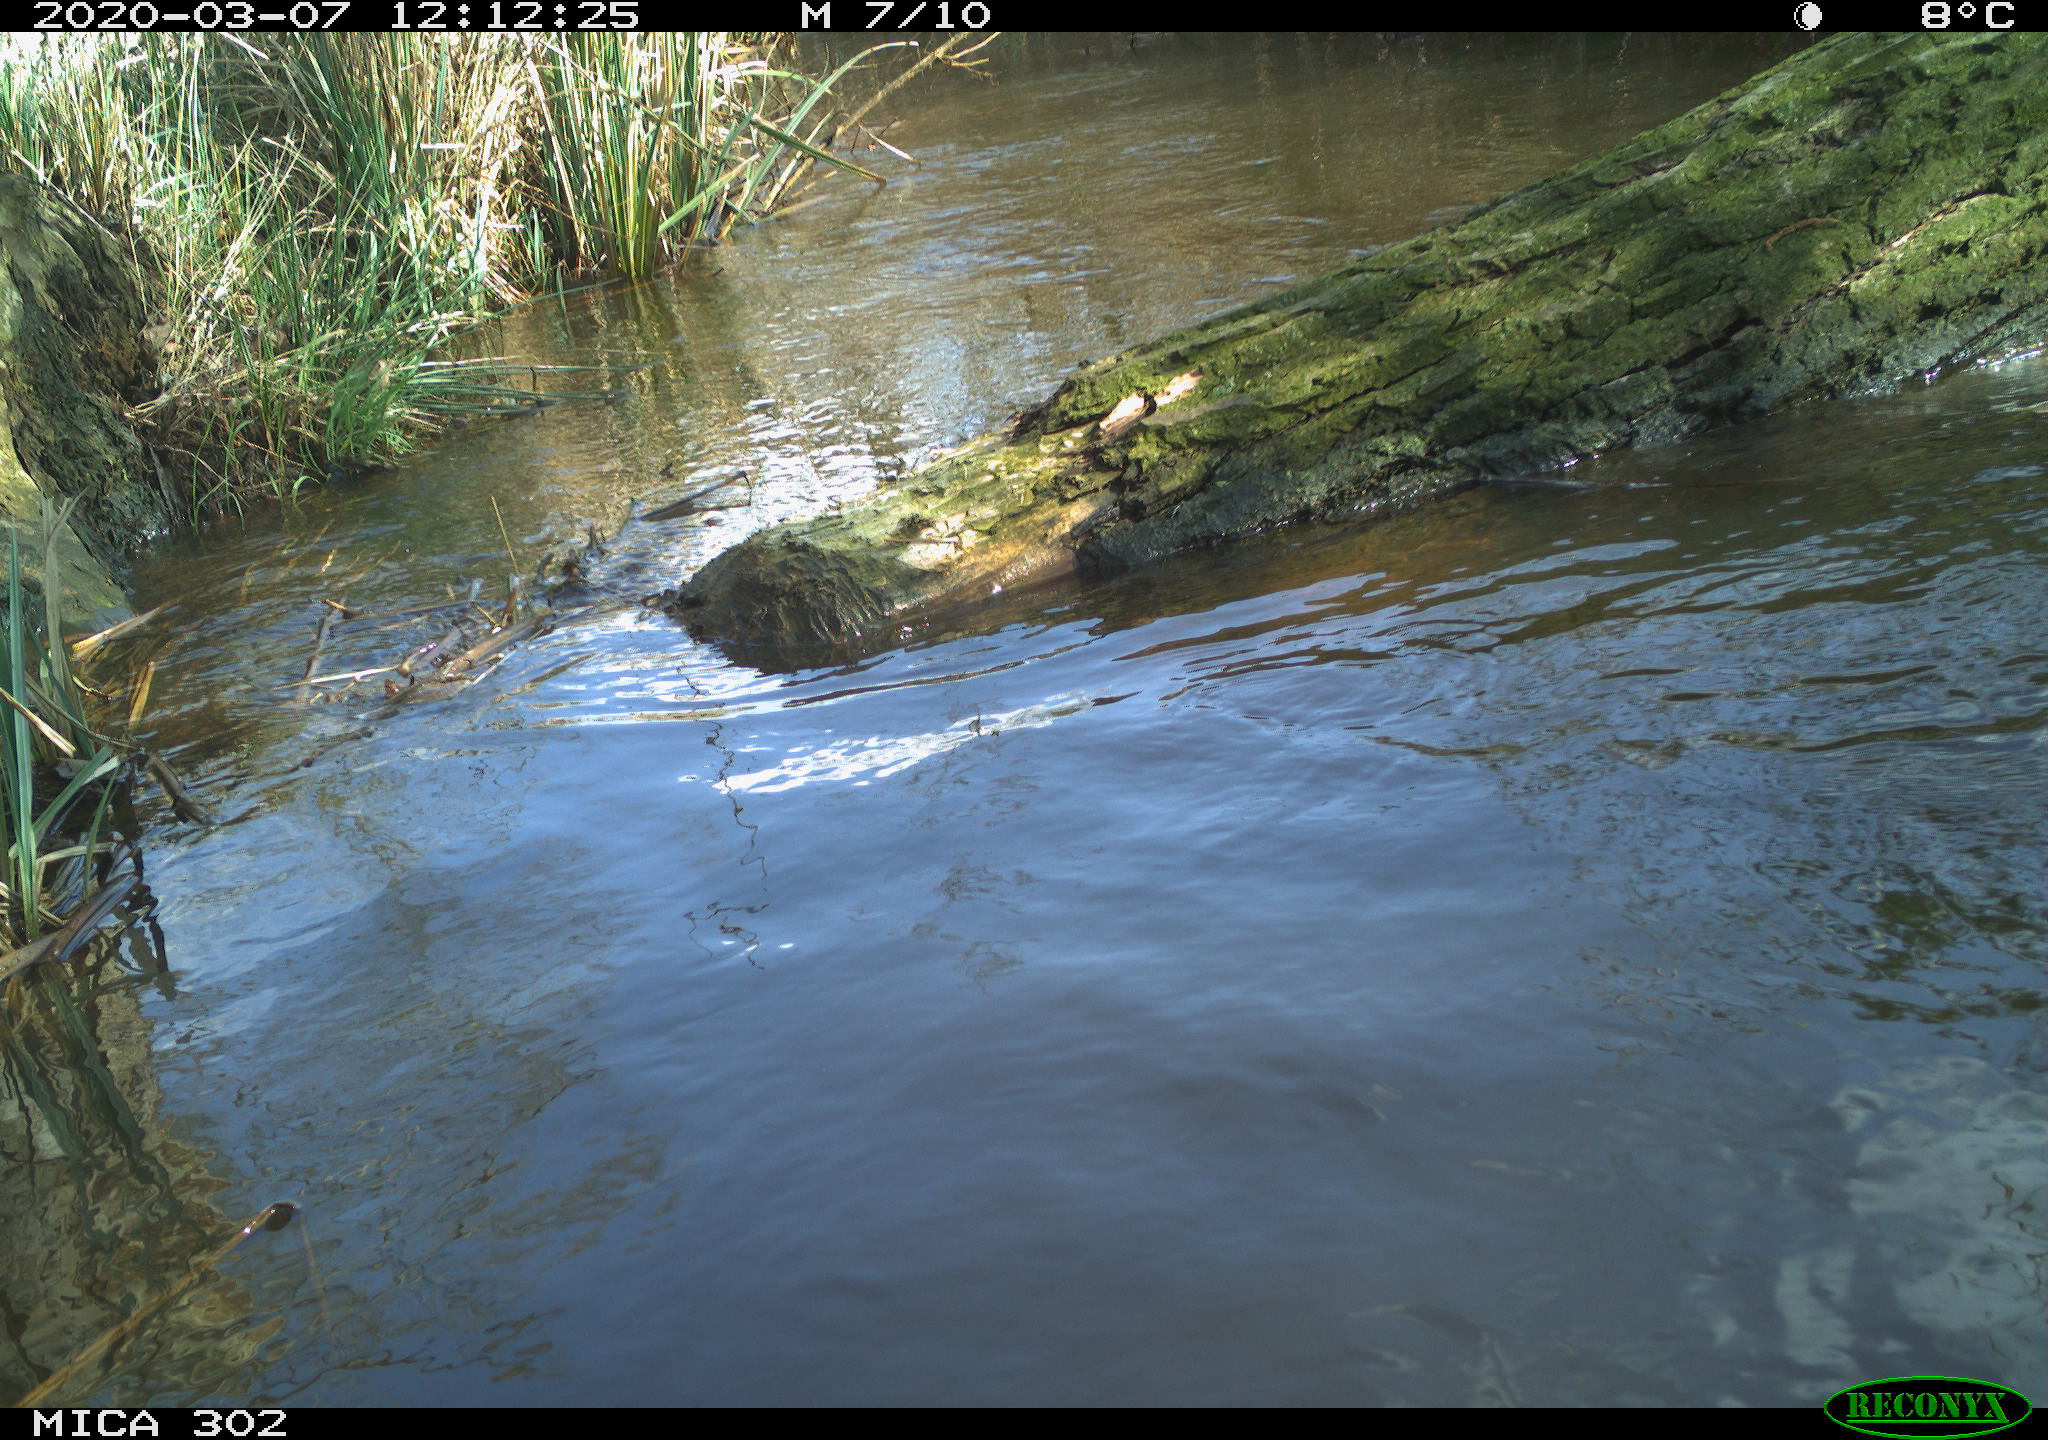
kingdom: Animalia
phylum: Chordata
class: Aves
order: Anseriformes
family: Anatidae
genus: Anser
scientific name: Anser anser
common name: Greylag goose
